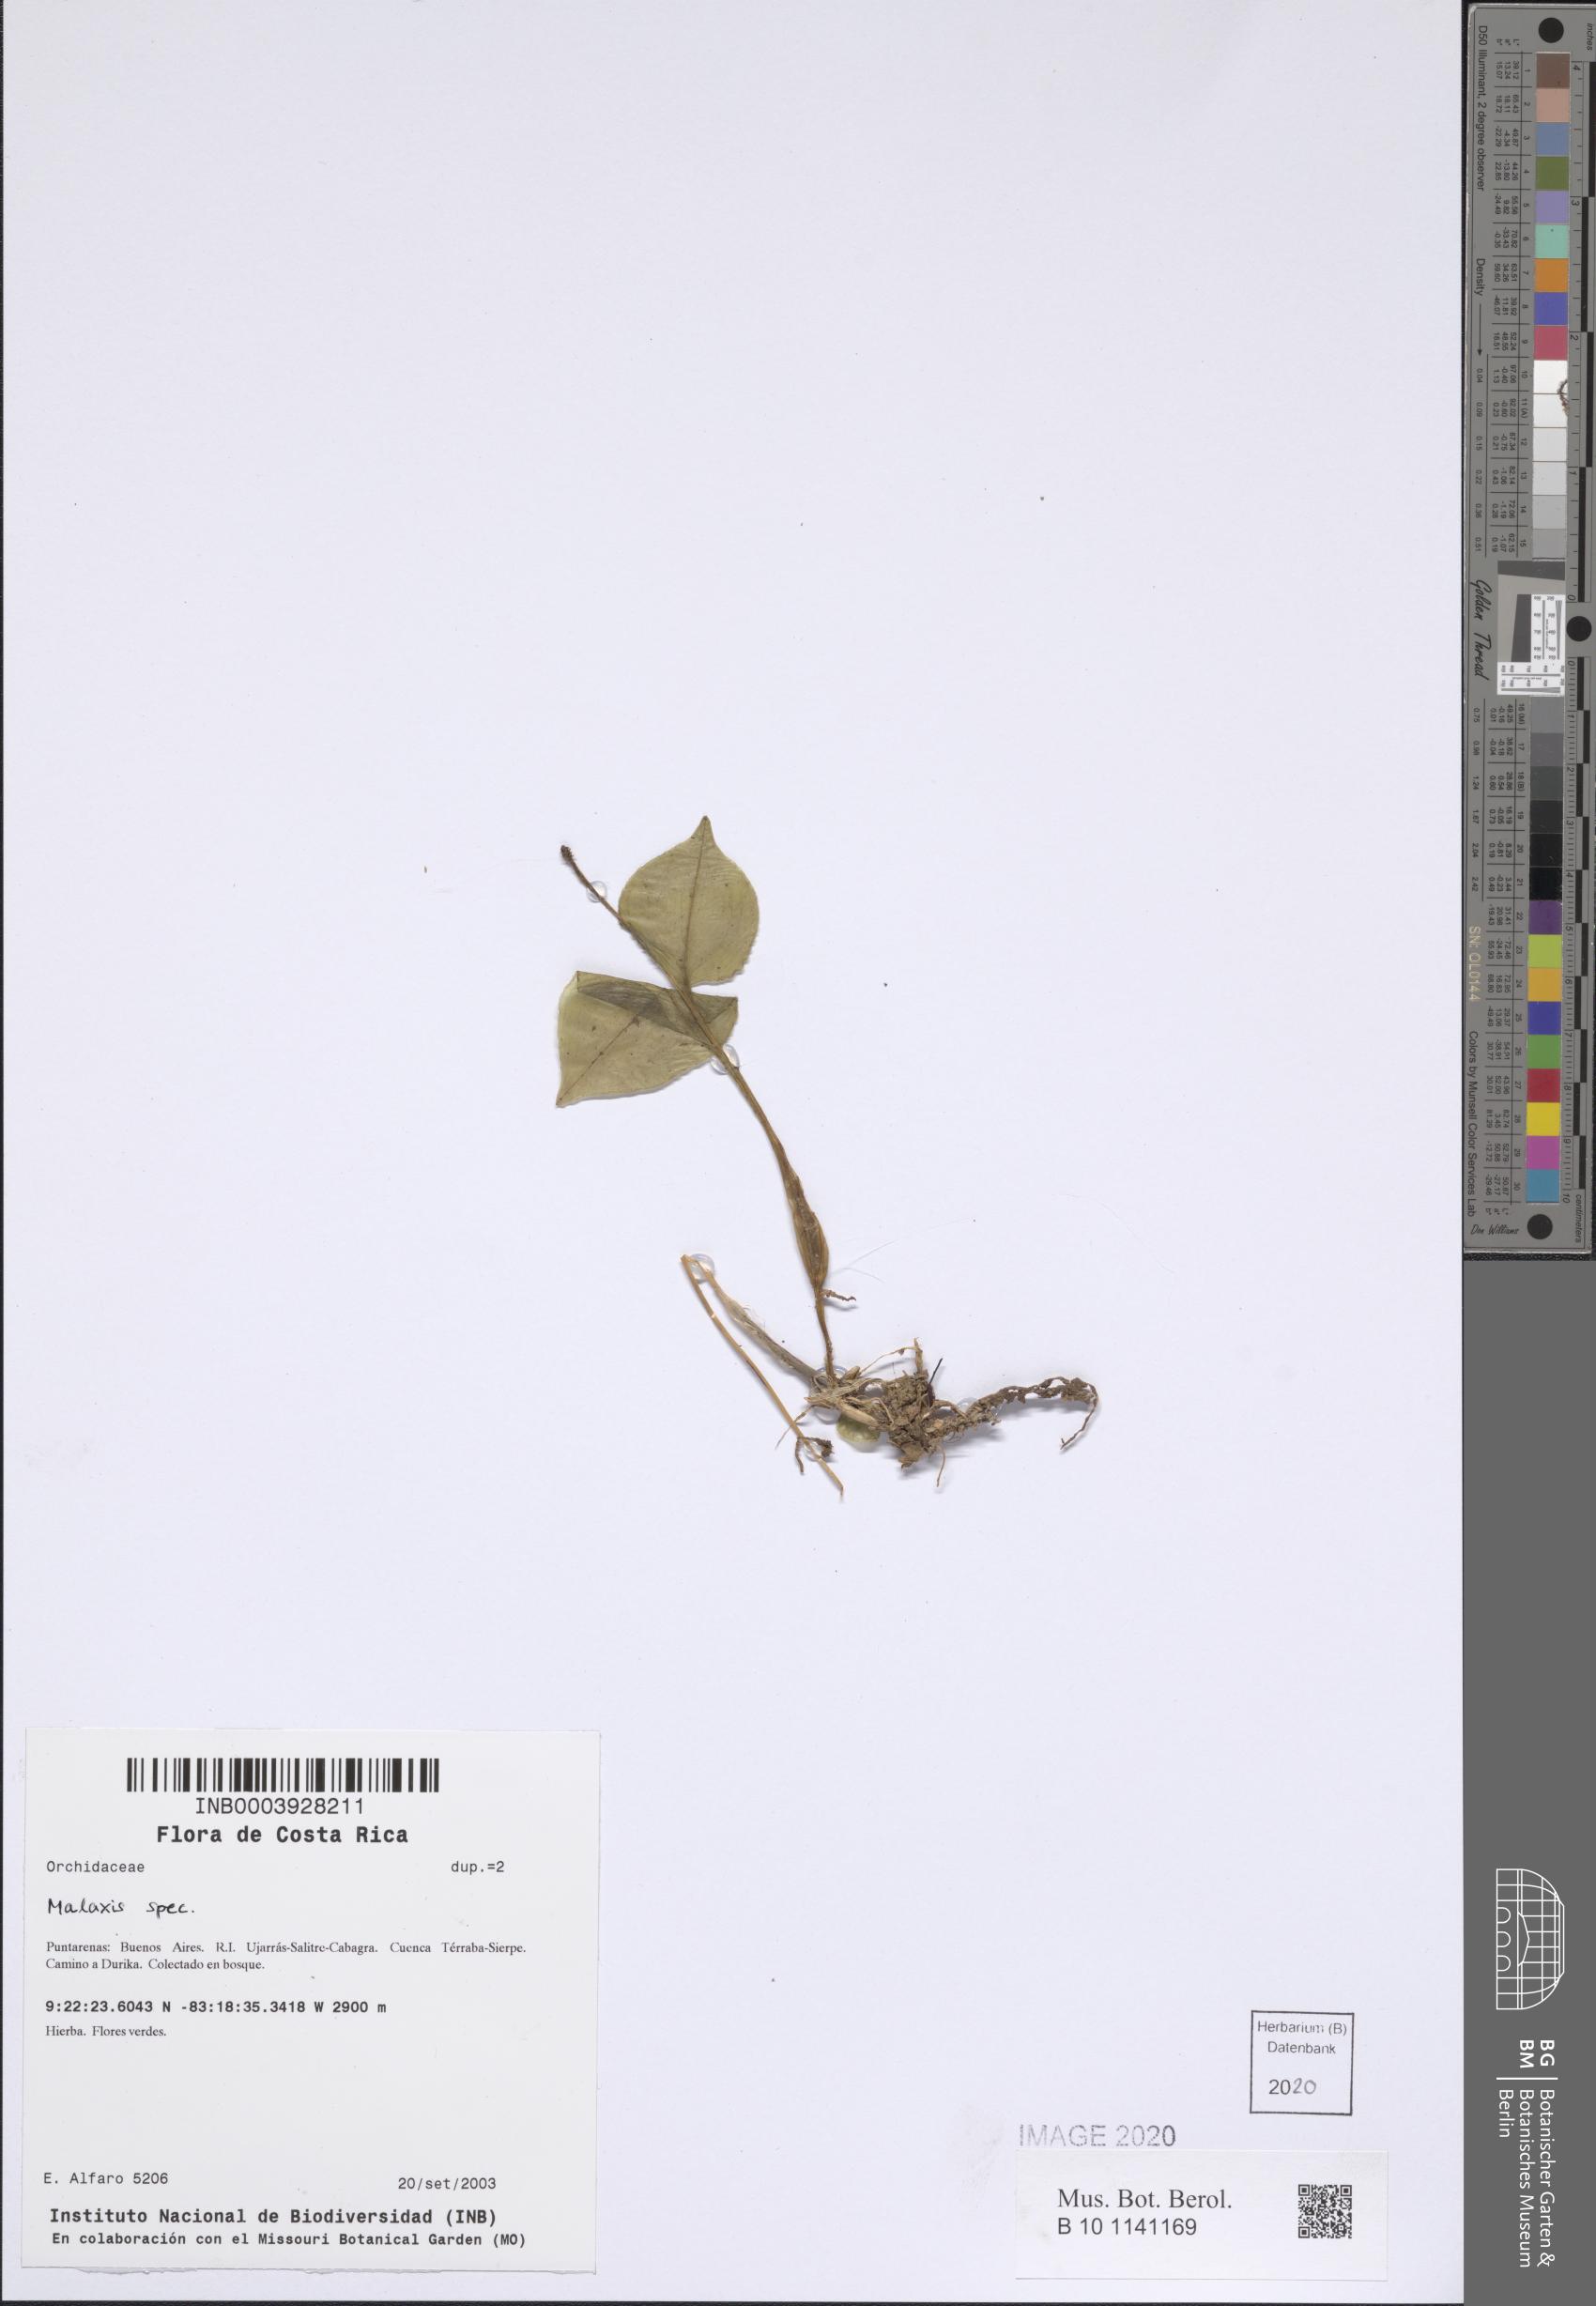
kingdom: Plantae
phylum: Tracheophyta
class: Liliopsida
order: Asparagales
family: Orchidaceae
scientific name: Orchidaceae
